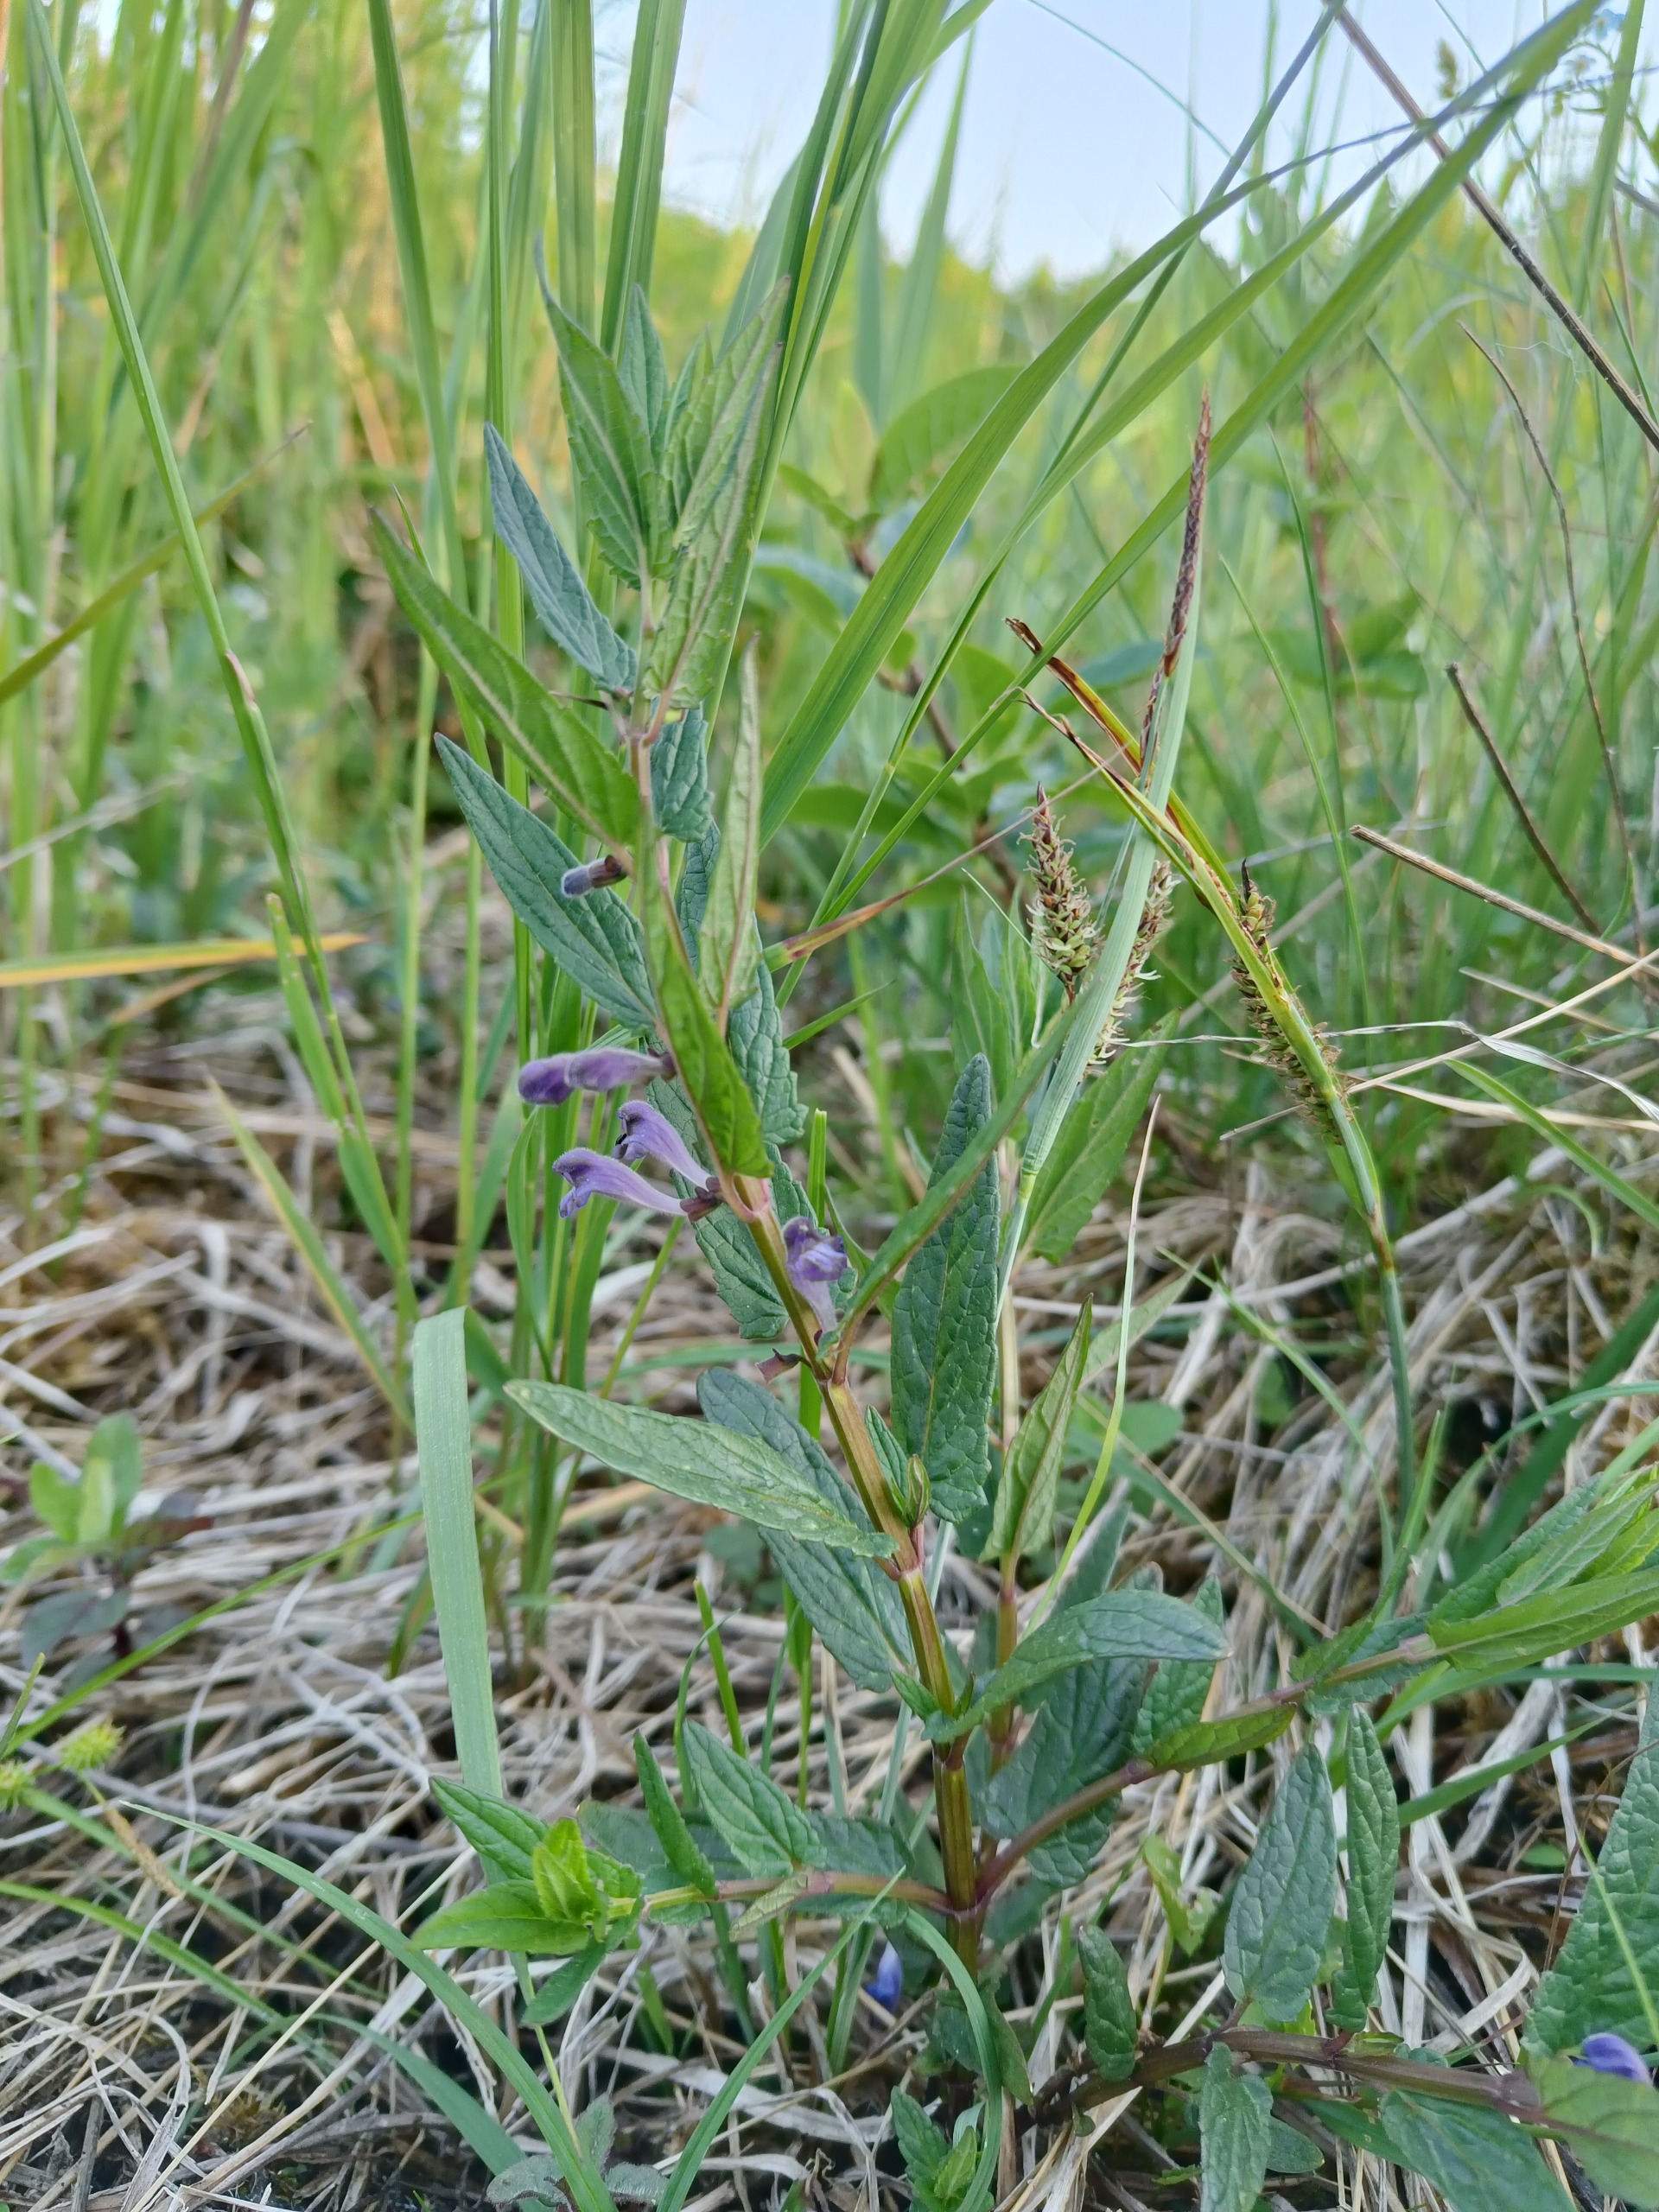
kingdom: Plantae
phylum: Tracheophyta
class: Magnoliopsida
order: Lamiales
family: Lamiaceae
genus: Scutellaria
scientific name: Scutellaria galericulata
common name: Almindelig skjolddrager
